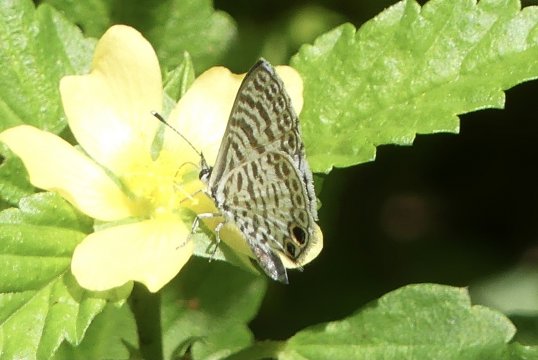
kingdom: Animalia
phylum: Arthropoda
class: Insecta
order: Lepidoptera
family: Lycaenidae
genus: Leptotes
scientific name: Leptotes cassius
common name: Cassius Blue
